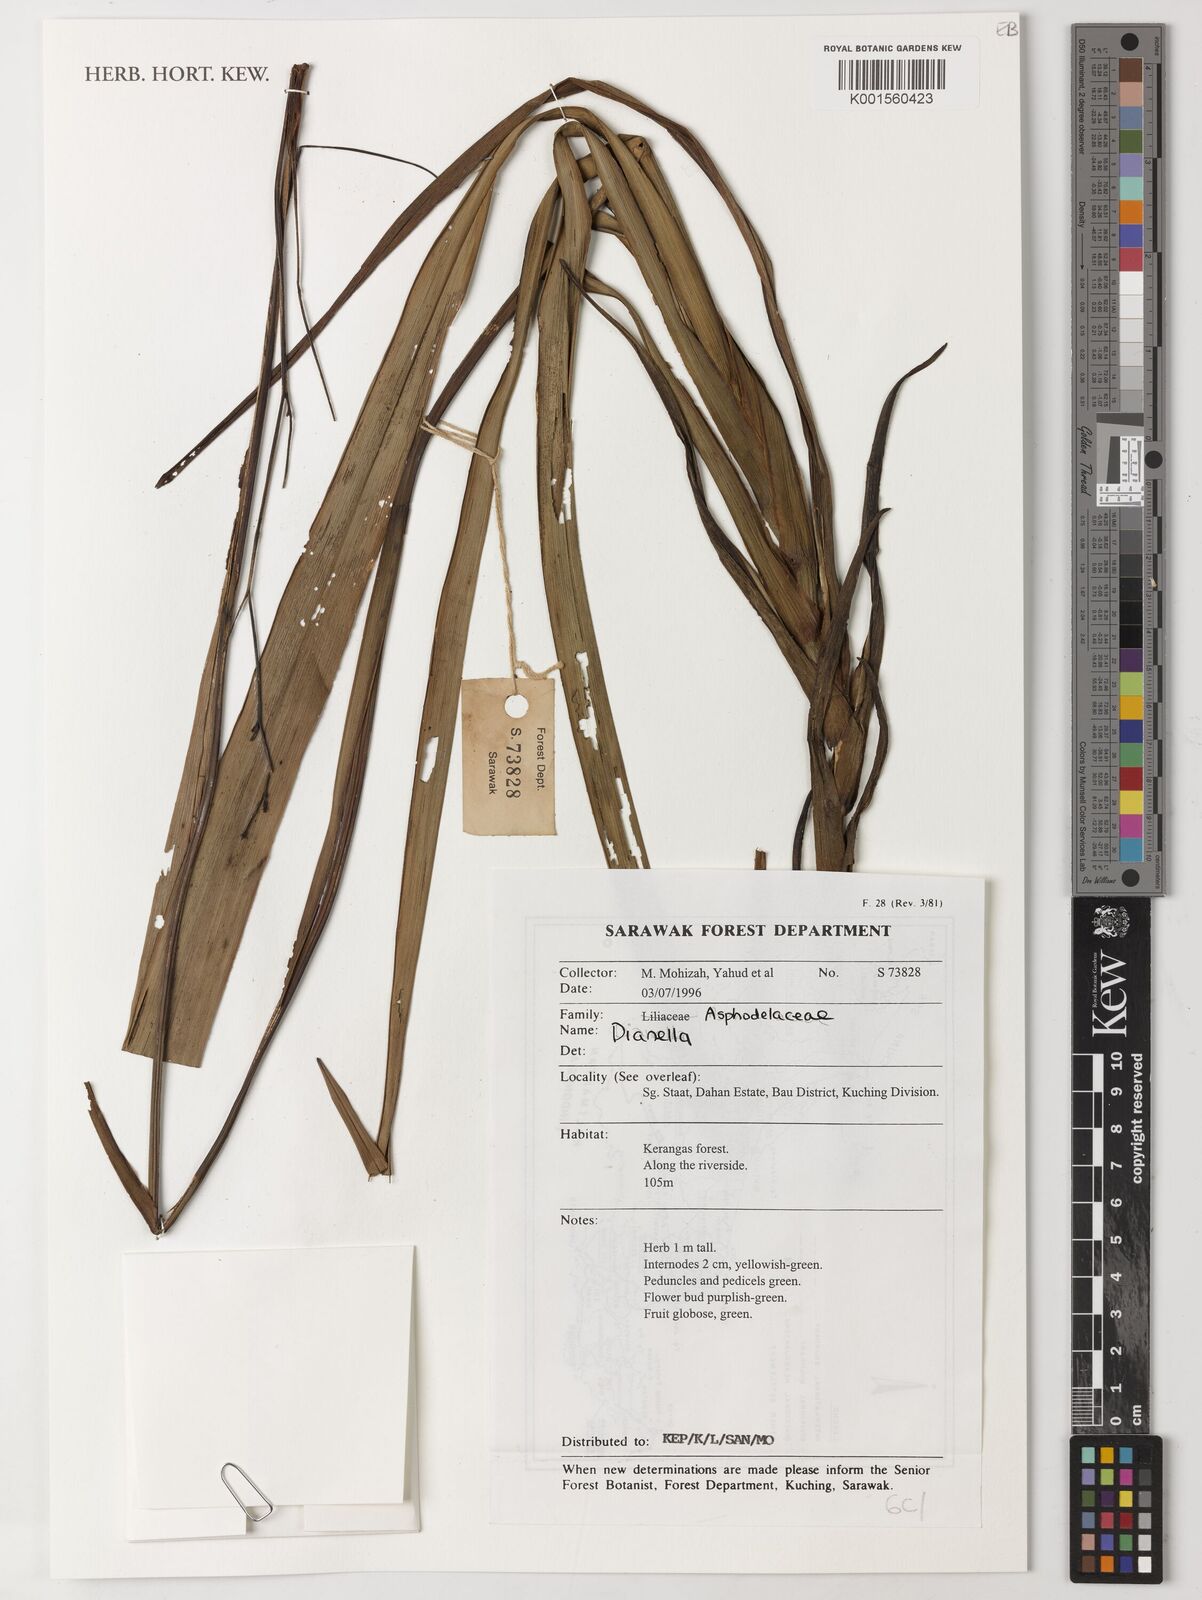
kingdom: Plantae
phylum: Tracheophyta
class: Liliopsida
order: Asparagales
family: Asphodelaceae
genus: Dianella
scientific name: Dianella
